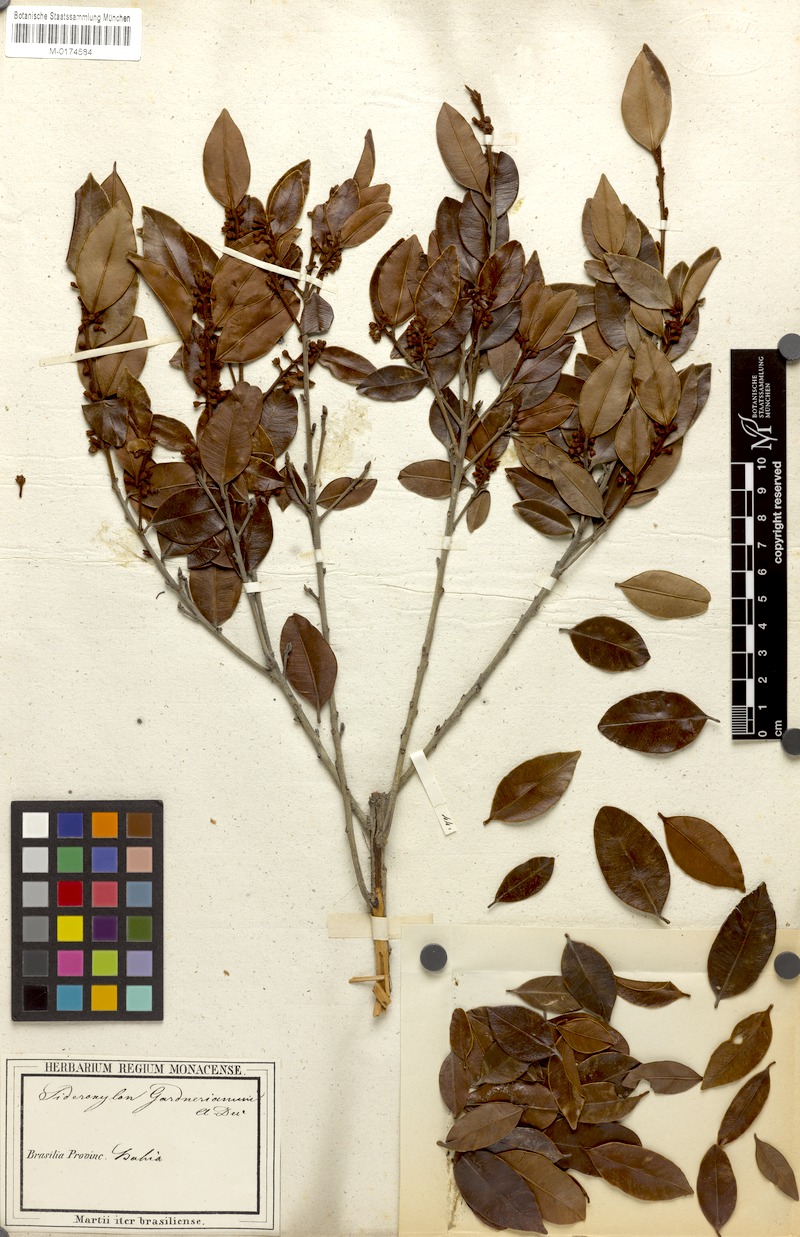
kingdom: Plantae
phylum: Tracheophyta
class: Magnoliopsida
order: Ericales
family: Sapotaceae
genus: Micropholis
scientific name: Micropholis gnaphaloclados
